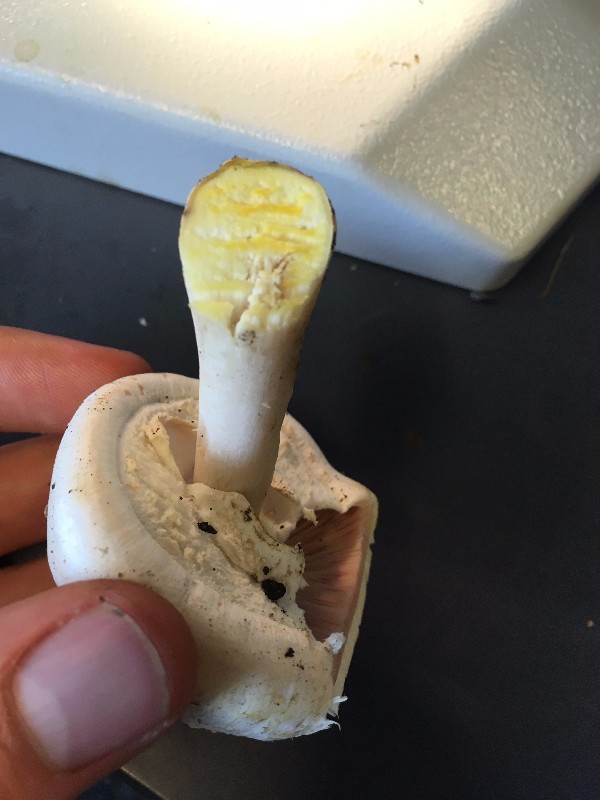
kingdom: Fungi
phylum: Basidiomycota
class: Agaricomycetes
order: Agaricales
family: Agaricaceae
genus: Agaricus
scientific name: Agaricus xanthodermus
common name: karbol-champignon
